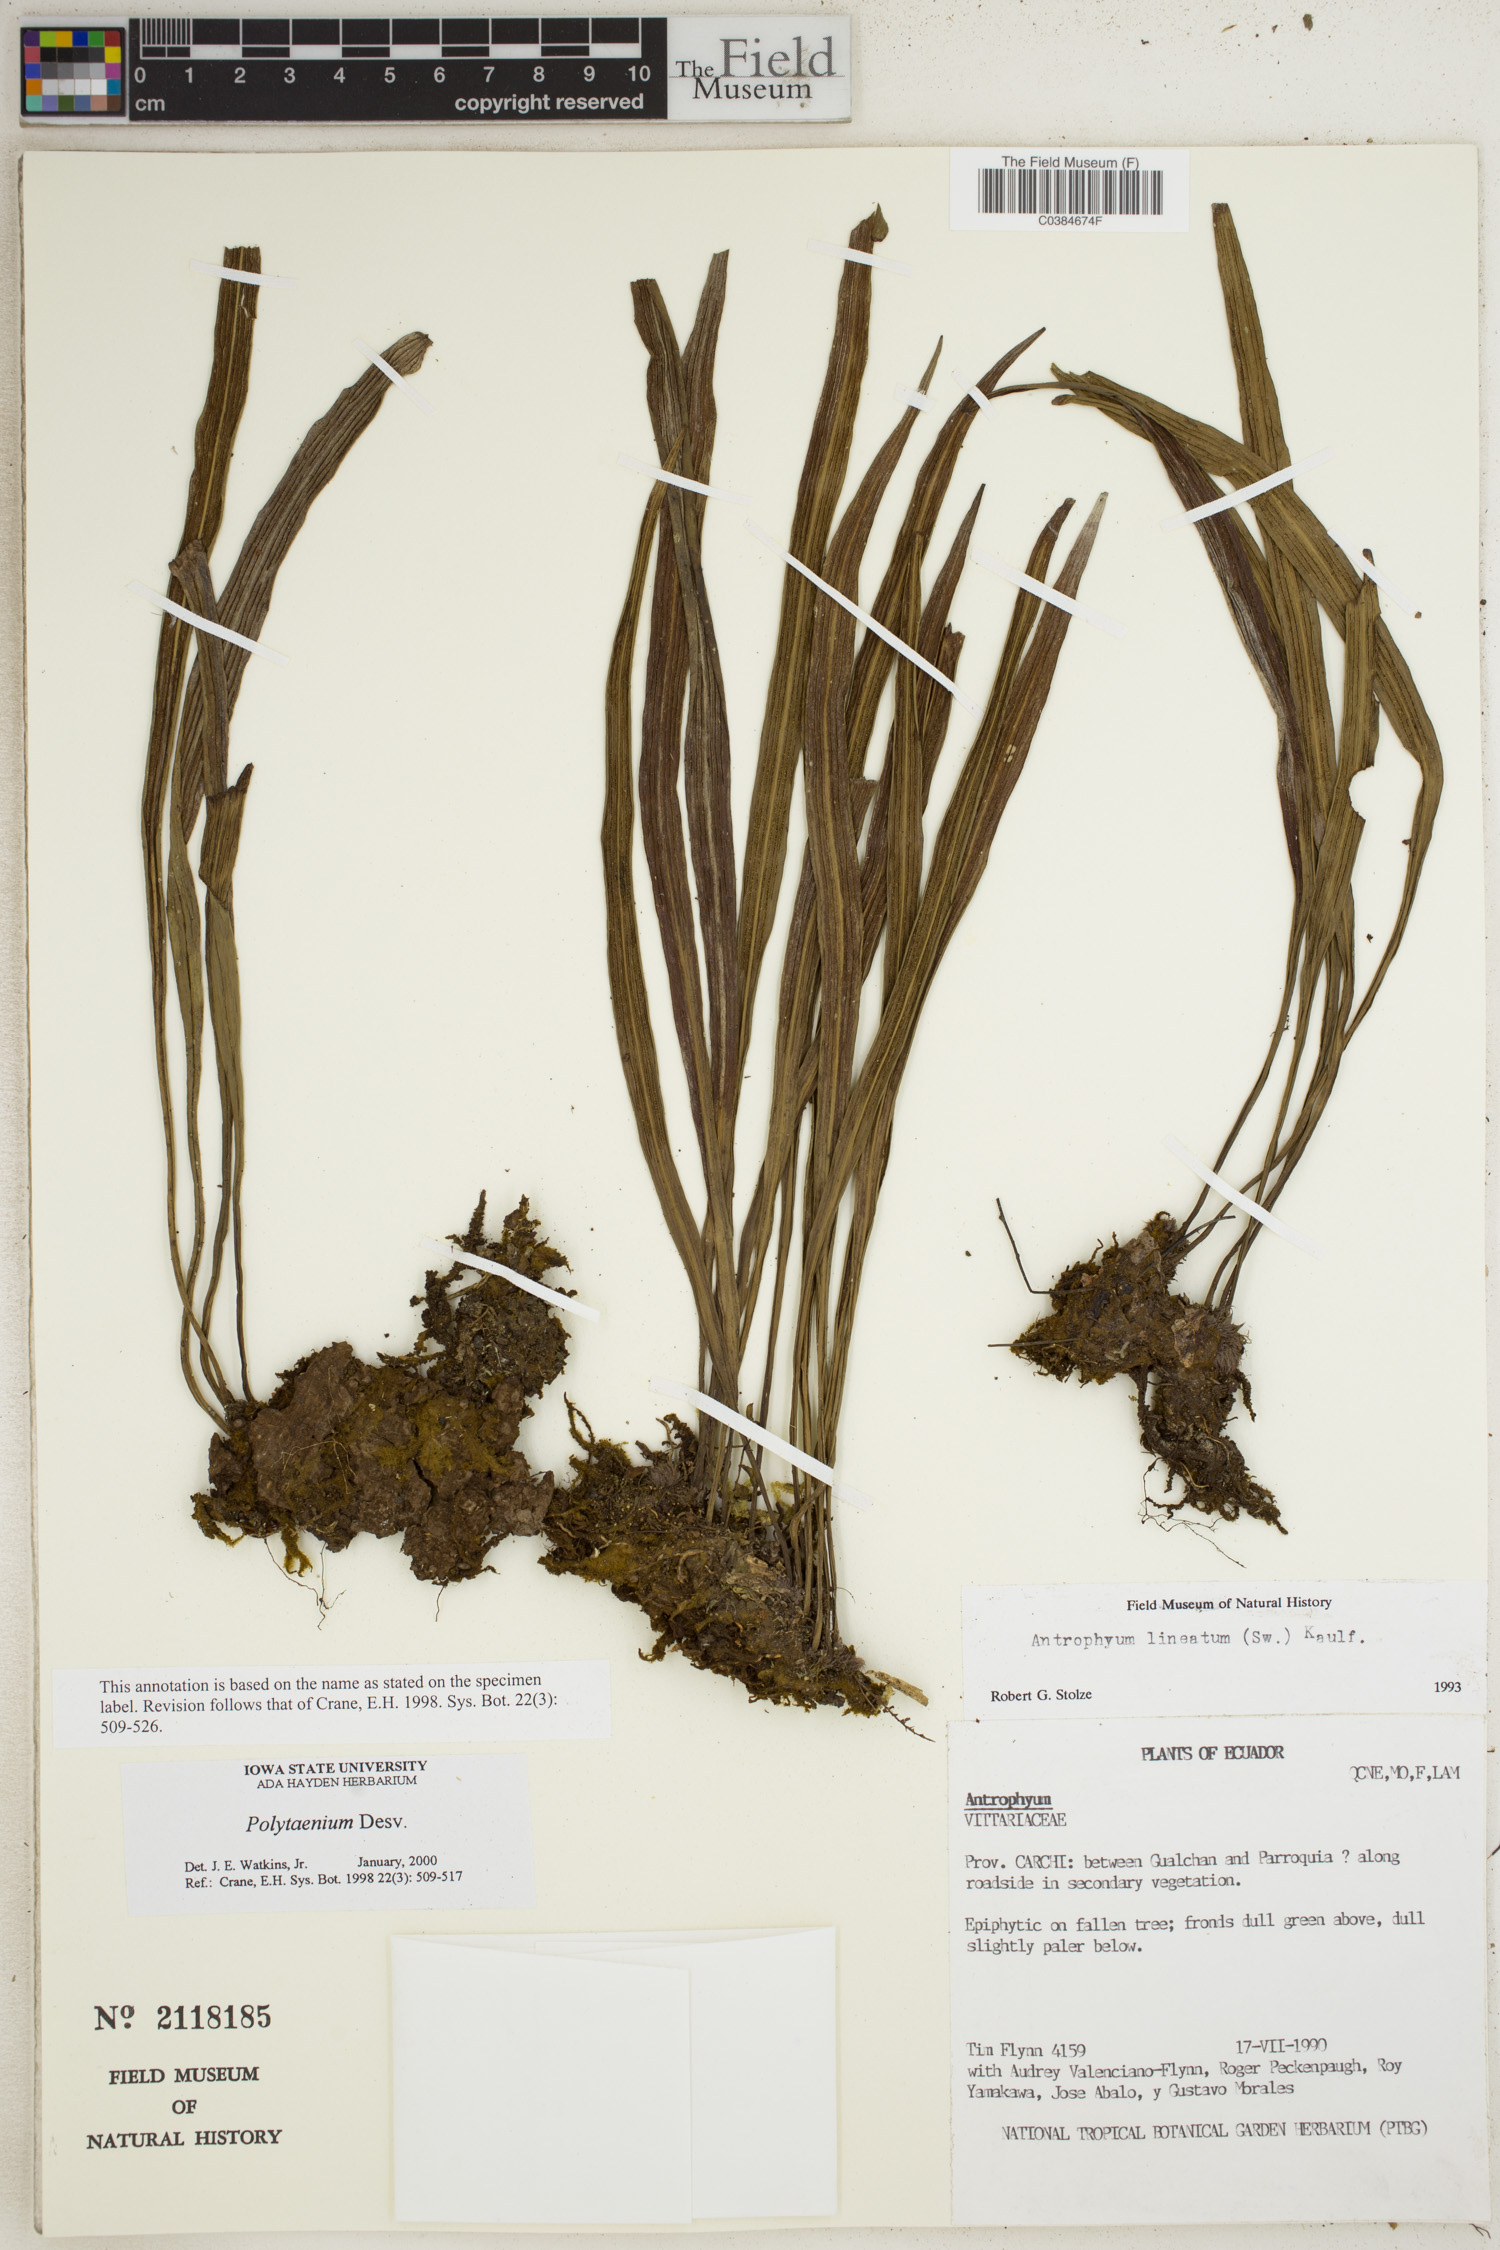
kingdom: Plantae
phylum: Tracheophyta
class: Polypodiopsida
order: Polypodiales
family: Pteridaceae
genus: Polytaenium
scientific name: Polytaenium
